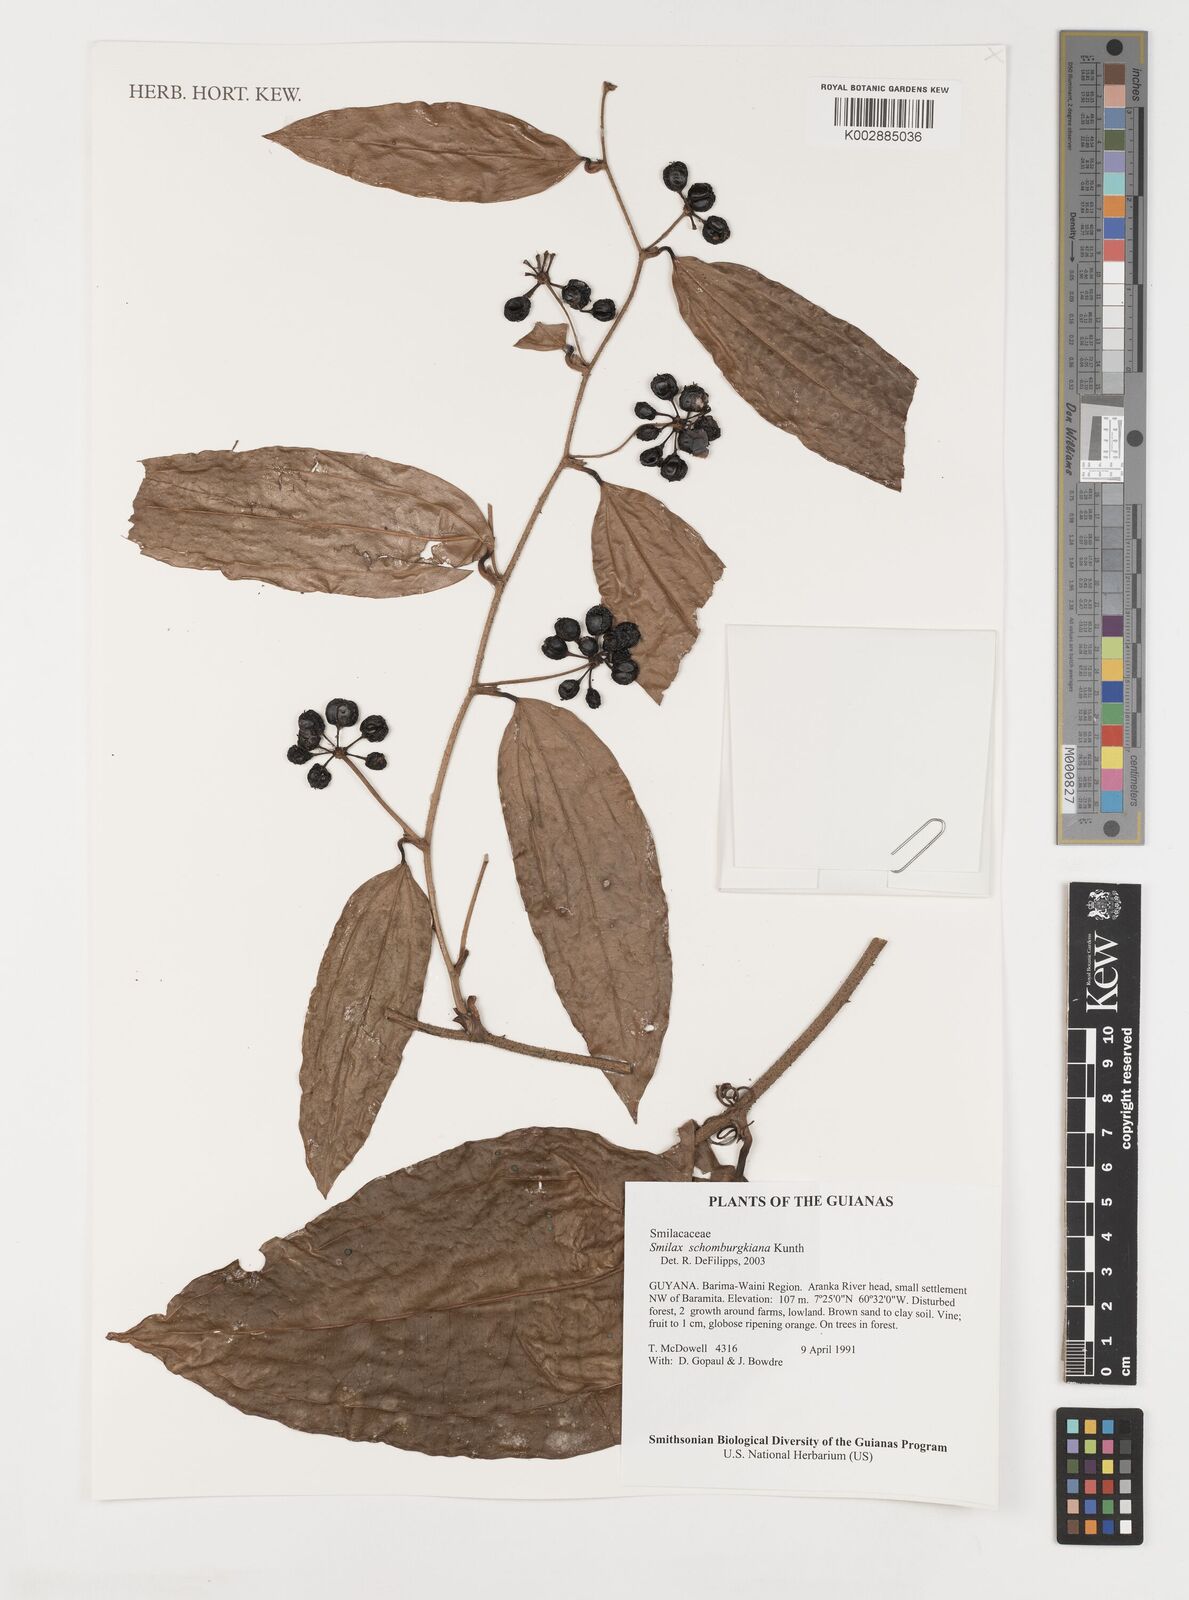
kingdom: Plantae
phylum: Tracheophyta
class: Liliopsida
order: Liliales
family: Smilacaceae
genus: Smilax
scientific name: Smilax schomburgkiana
